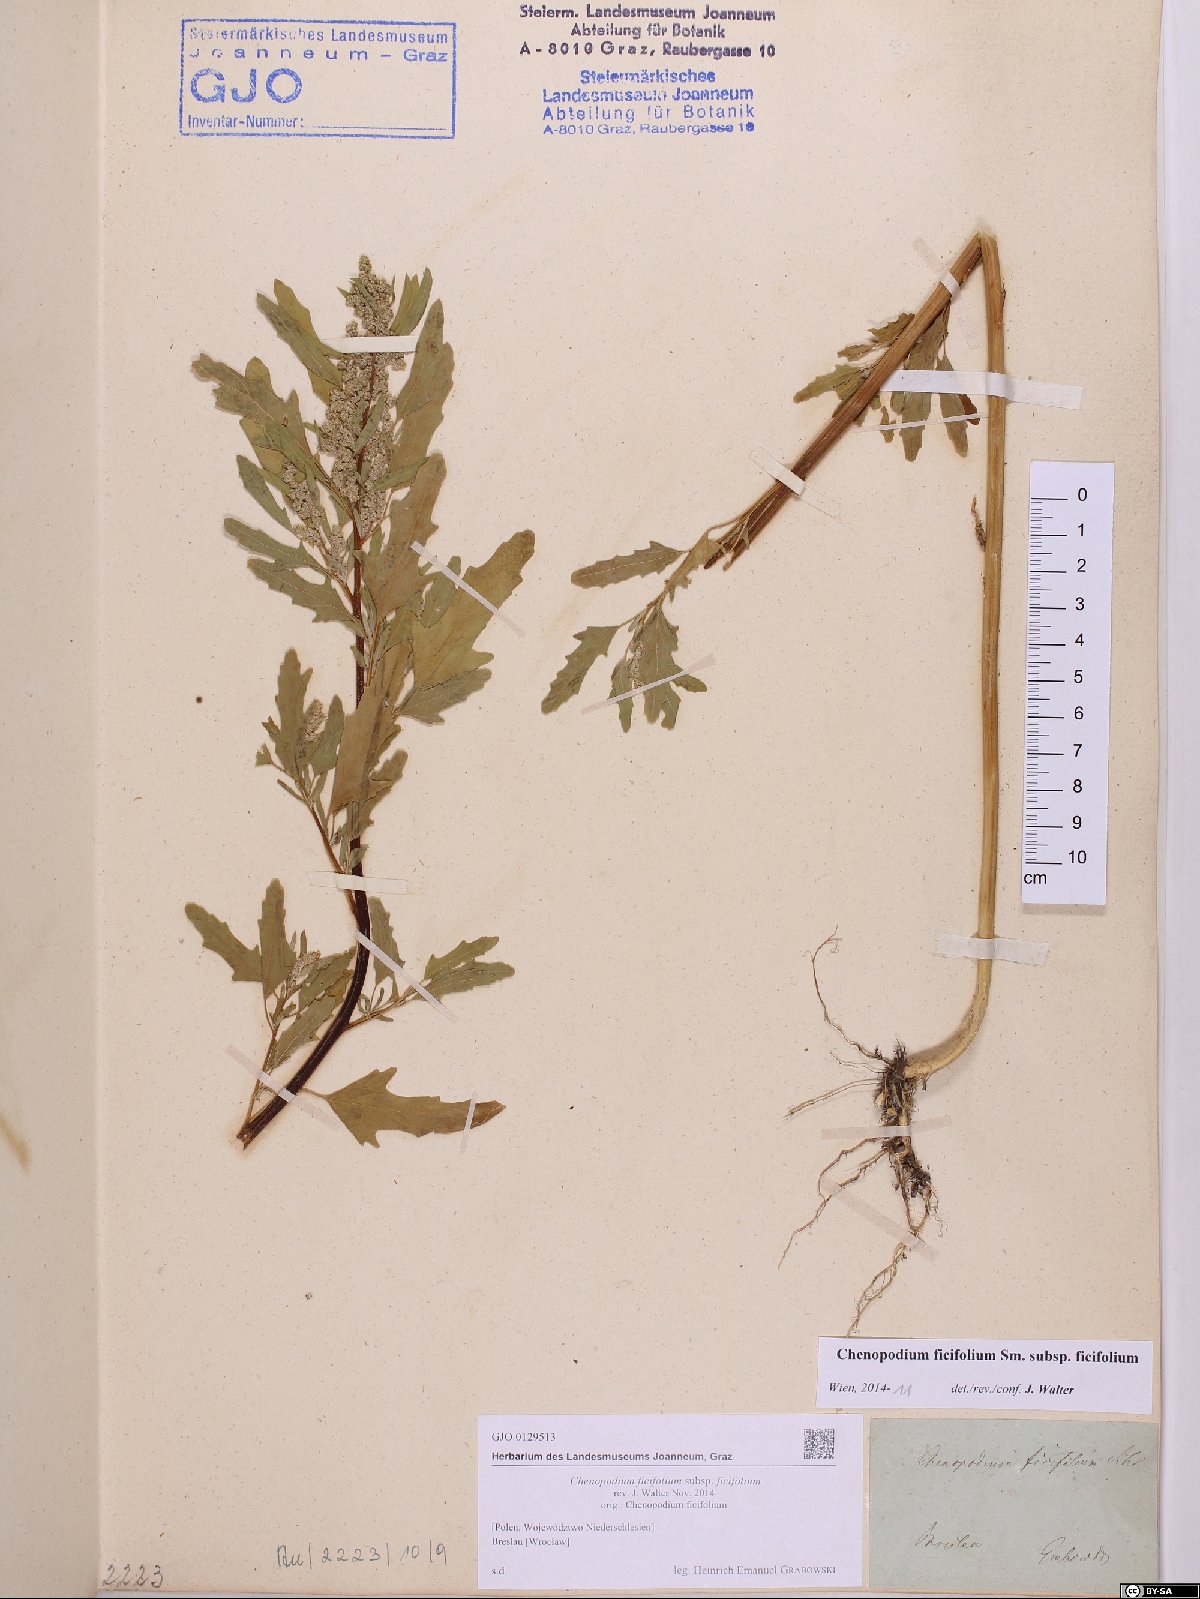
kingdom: Plantae
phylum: Tracheophyta
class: Magnoliopsida
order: Caryophyllales
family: Amaranthaceae
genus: Chenopodium
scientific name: Chenopodium ficifolium
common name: Fig-leaved goosefoot
